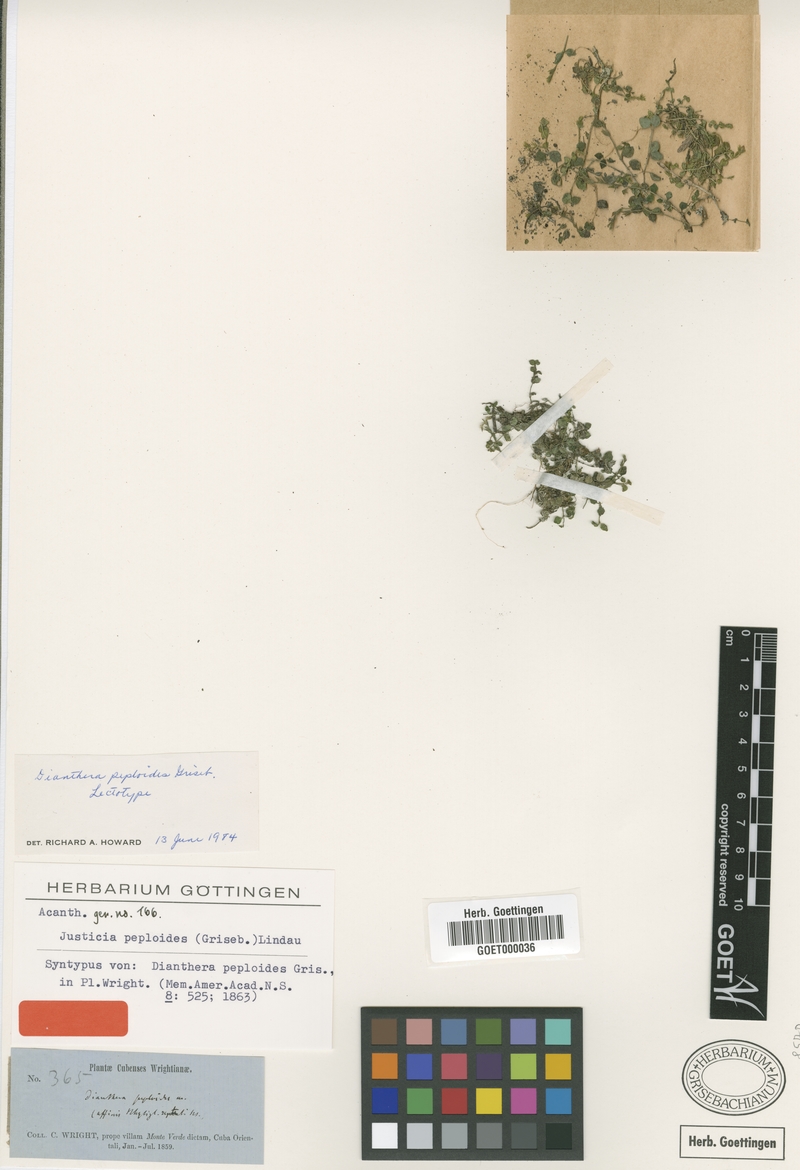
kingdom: Plantae
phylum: Tracheophyta
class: Magnoliopsida
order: Lamiales
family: Acanthaceae
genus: Dianthera
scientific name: Dianthera peploides
